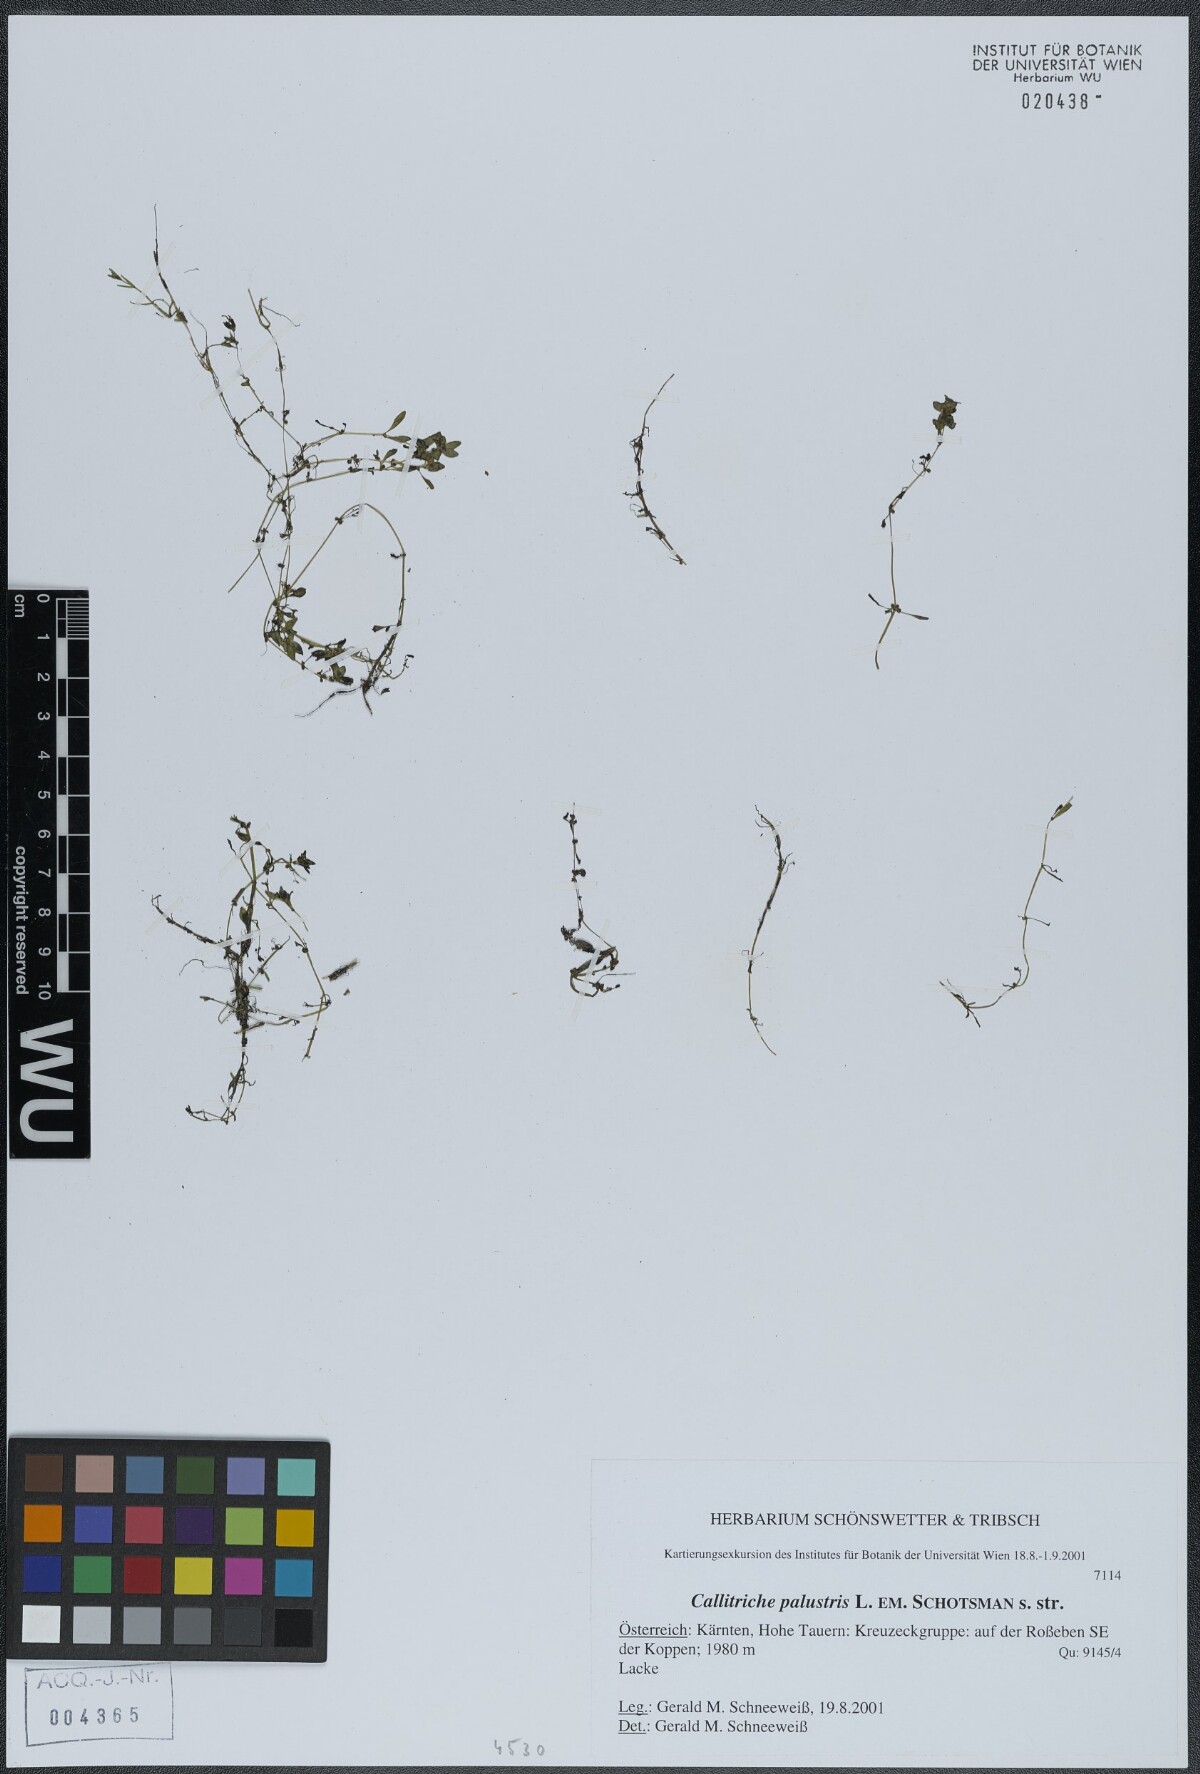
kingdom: Plantae
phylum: Tracheophyta
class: Magnoliopsida
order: Lamiales
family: Plantaginaceae
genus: Callitriche
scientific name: Callitriche palustris
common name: Spring water-starwort
